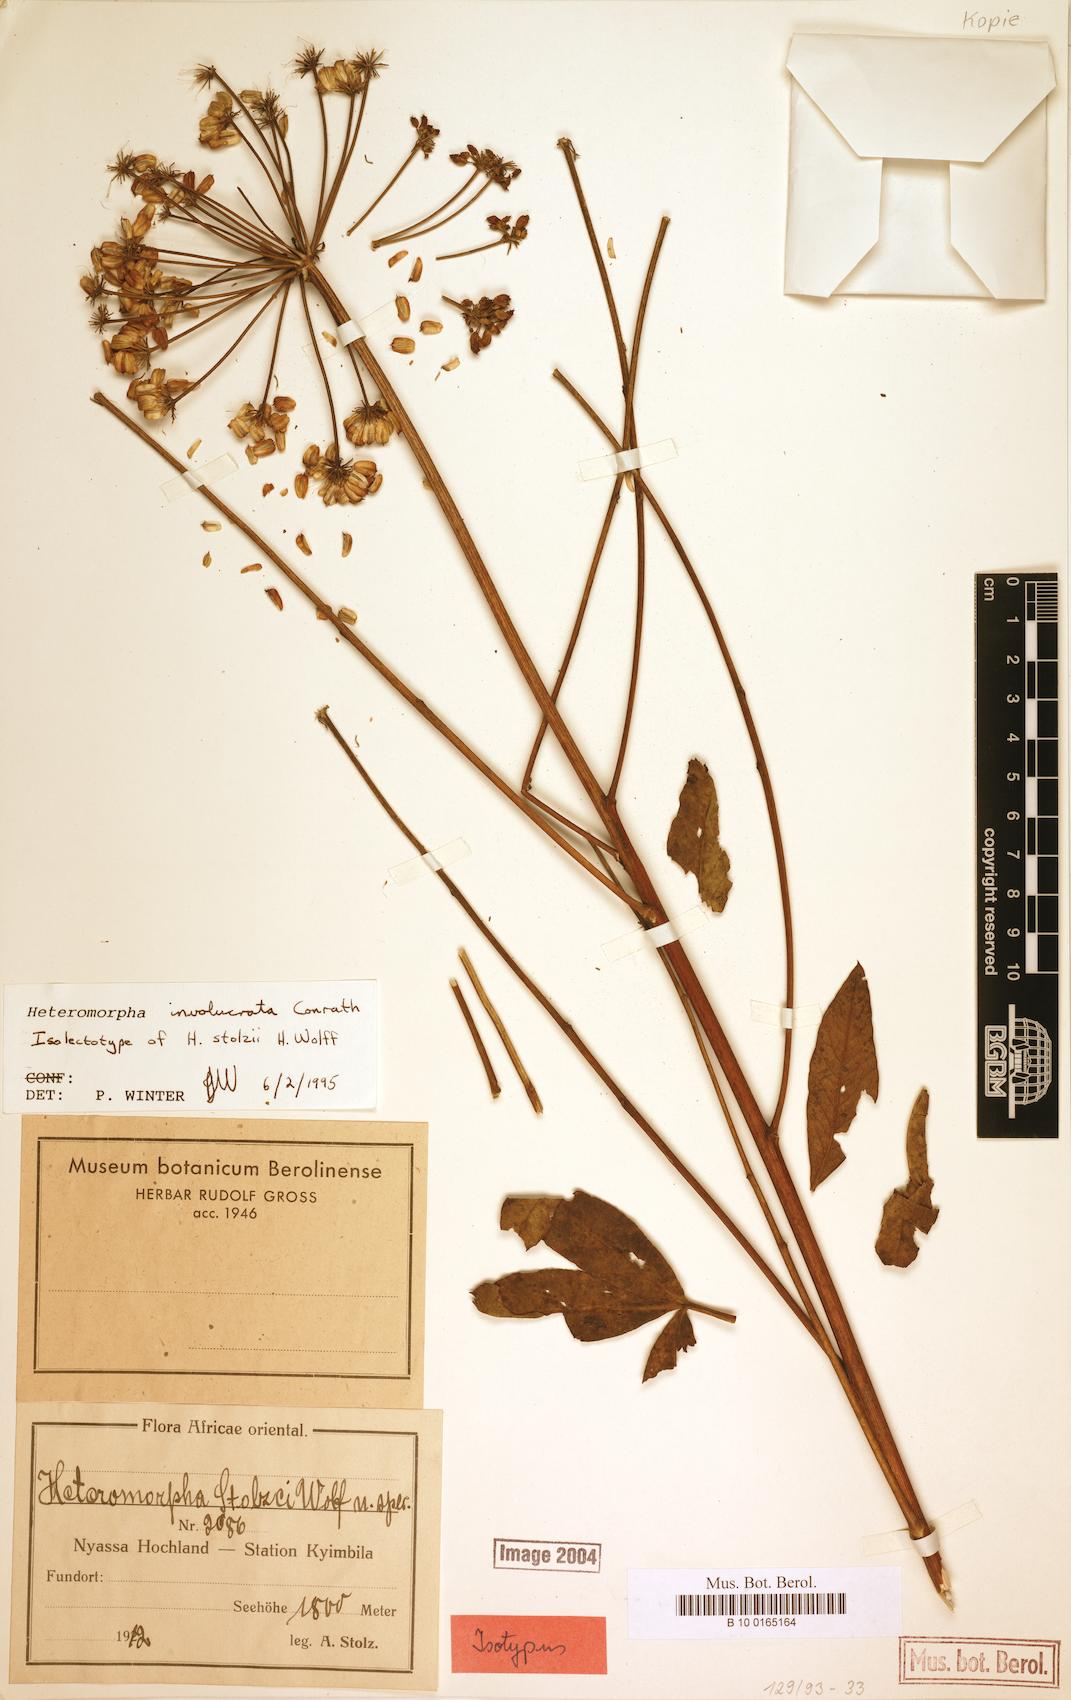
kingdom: Plantae
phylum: Tracheophyta
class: Magnoliopsida
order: Apiales
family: Apiaceae
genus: Heteromorpha
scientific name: Heteromorpha involucrata
